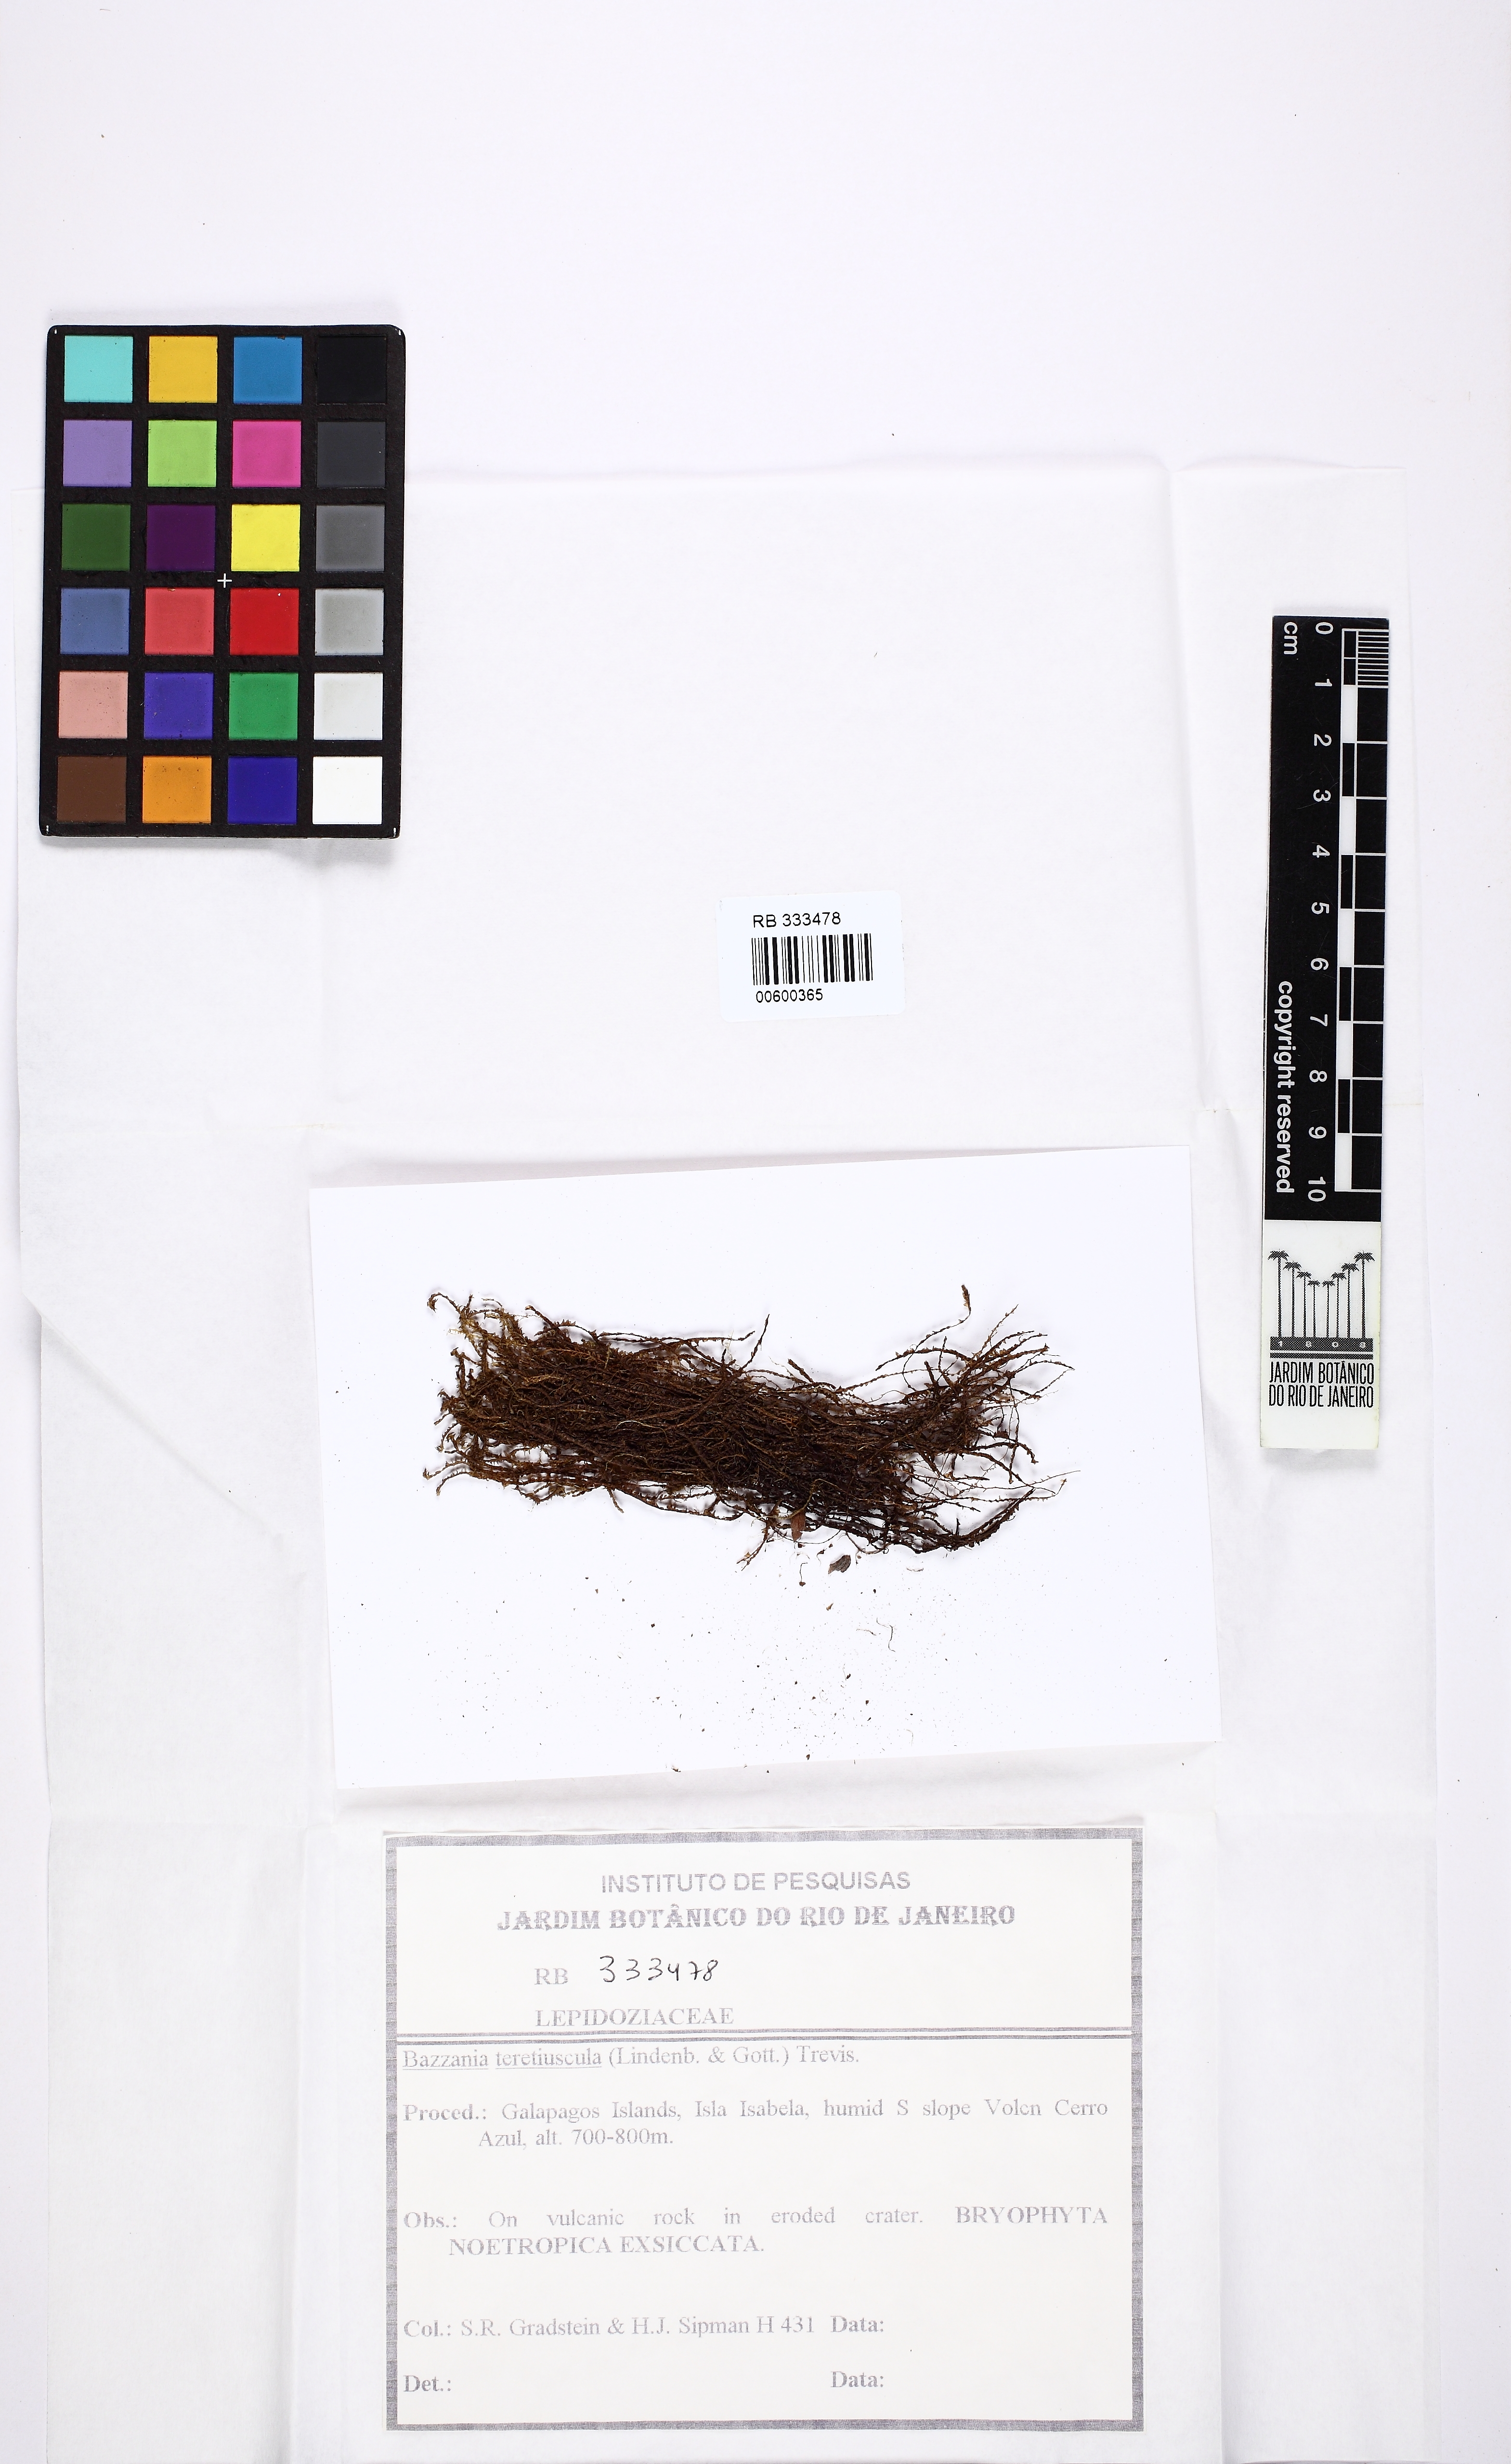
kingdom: Plantae
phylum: Marchantiophyta
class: Jungermanniopsida
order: Jungermanniales
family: Lepidoziaceae
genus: Bazzania
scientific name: Bazzania hookeri
